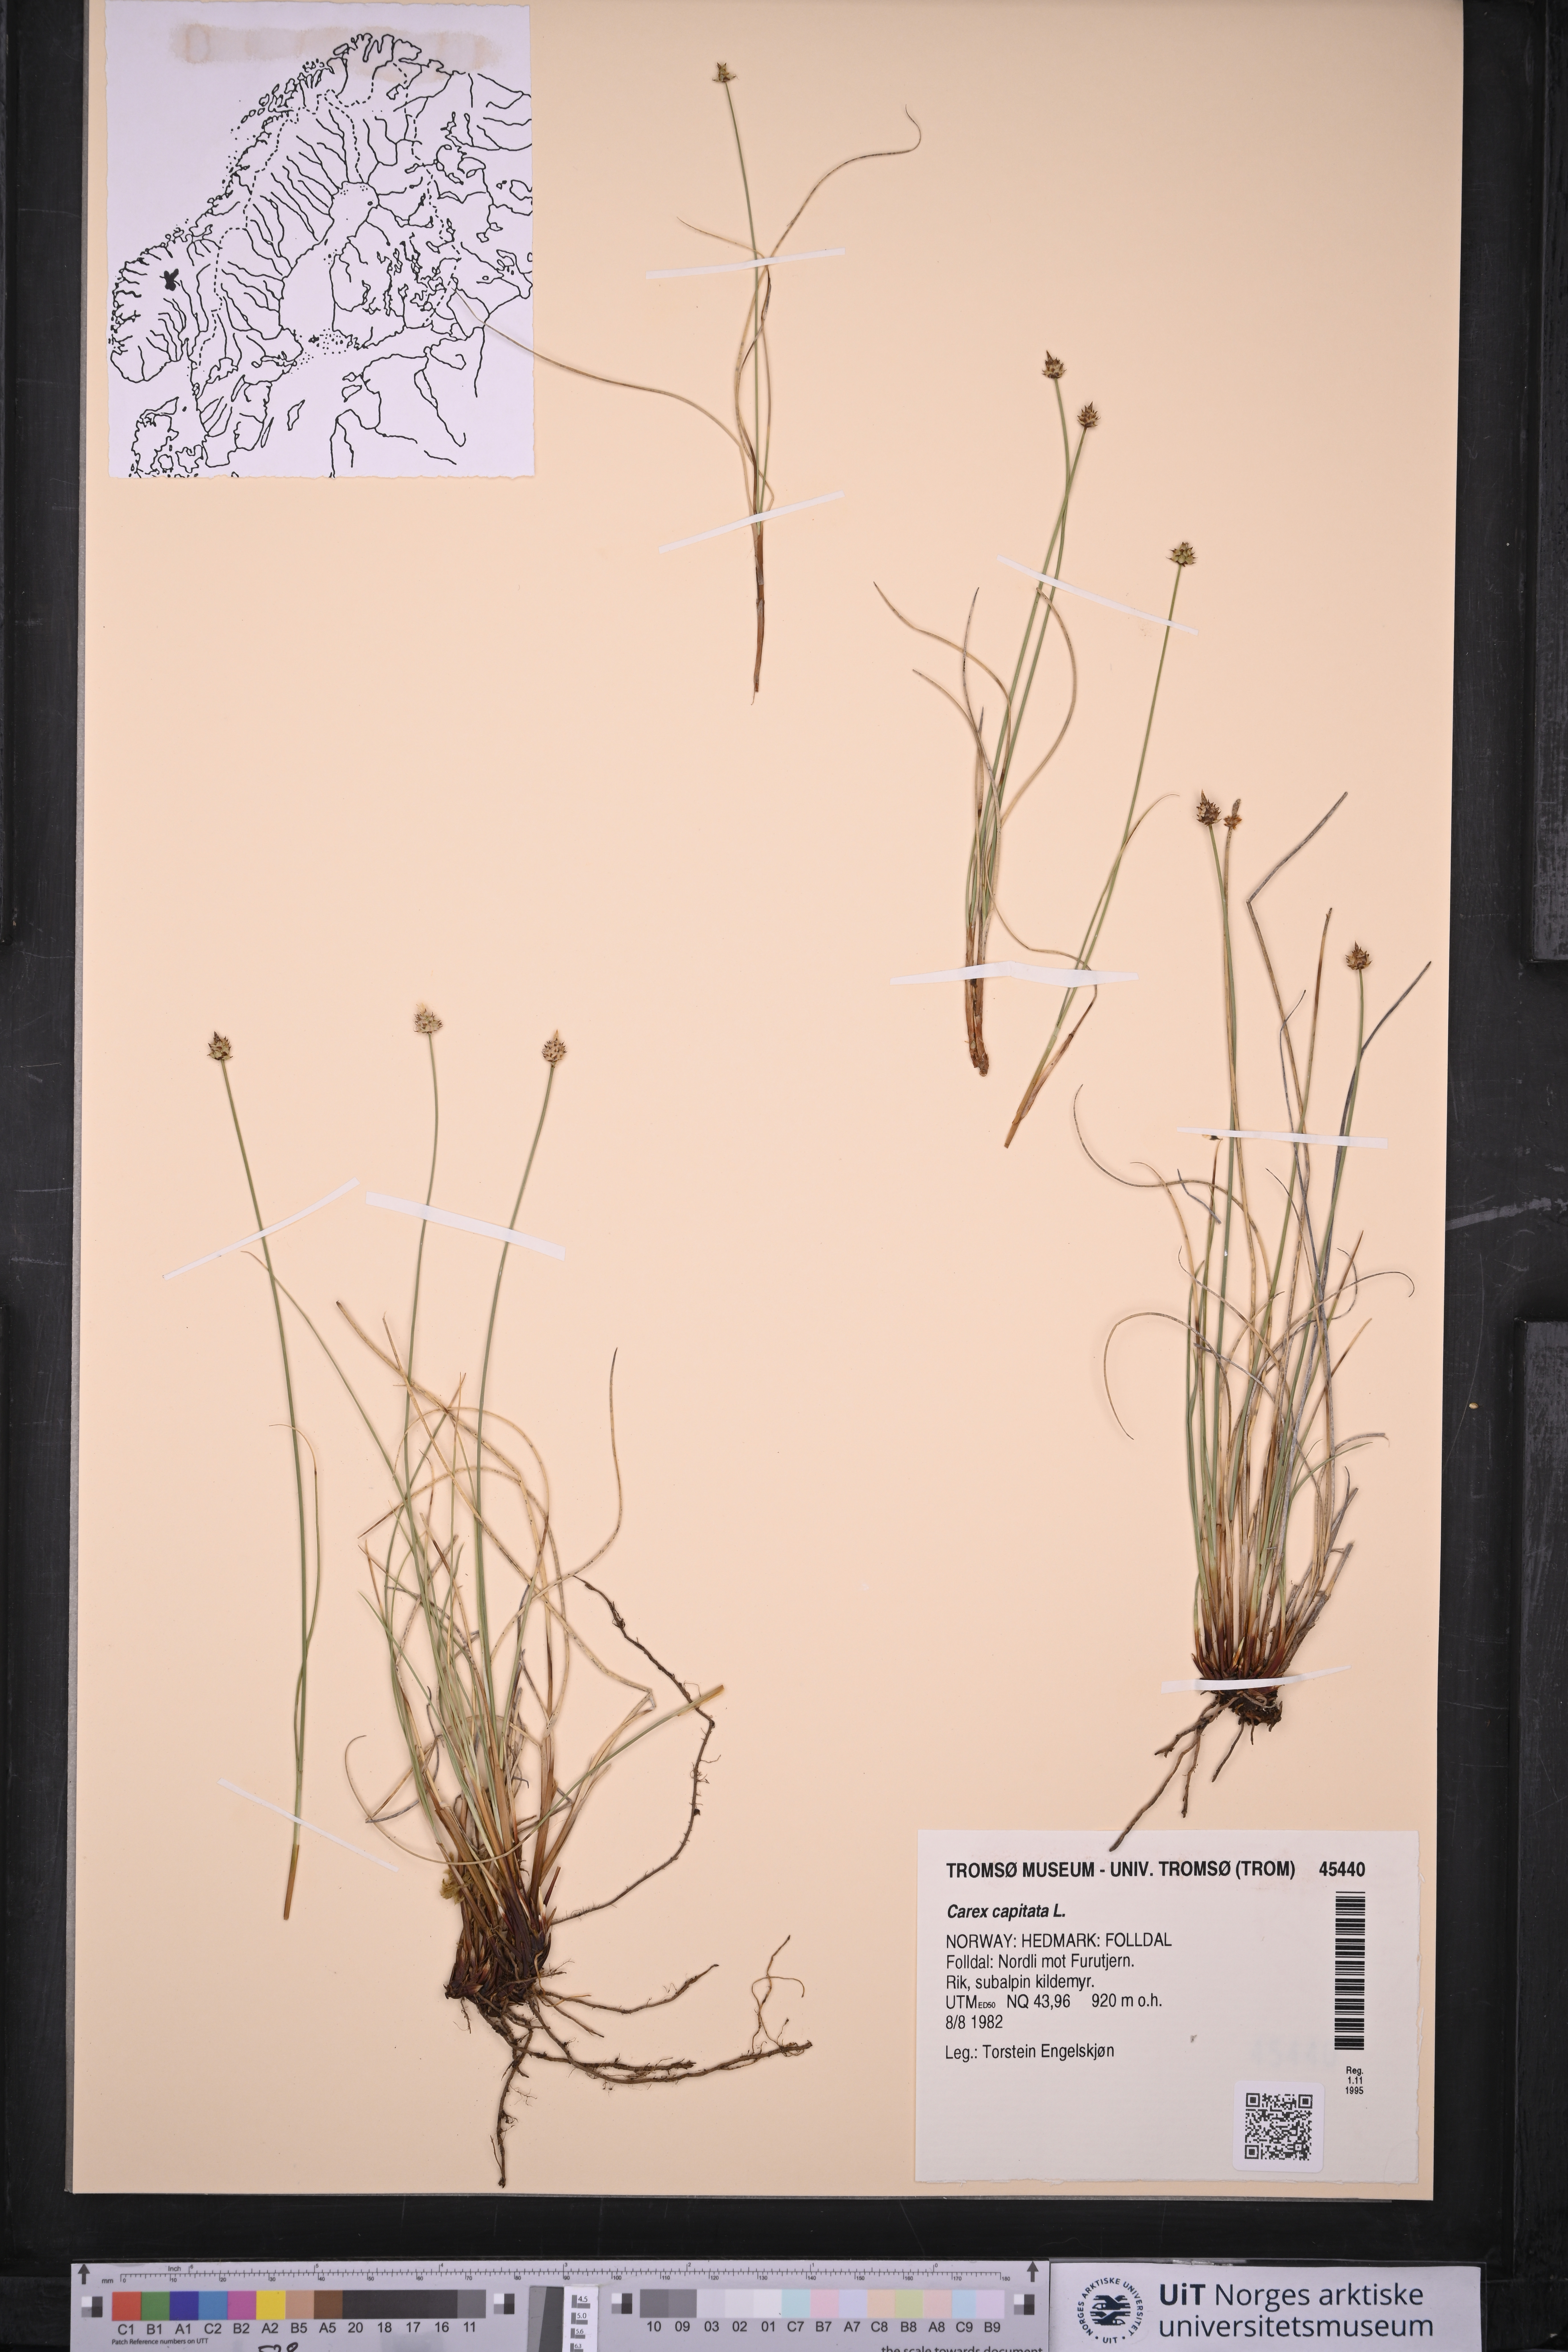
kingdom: Plantae
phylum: Tracheophyta
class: Liliopsida
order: Poales
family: Cyperaceae
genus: Carex
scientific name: Carex capitata
